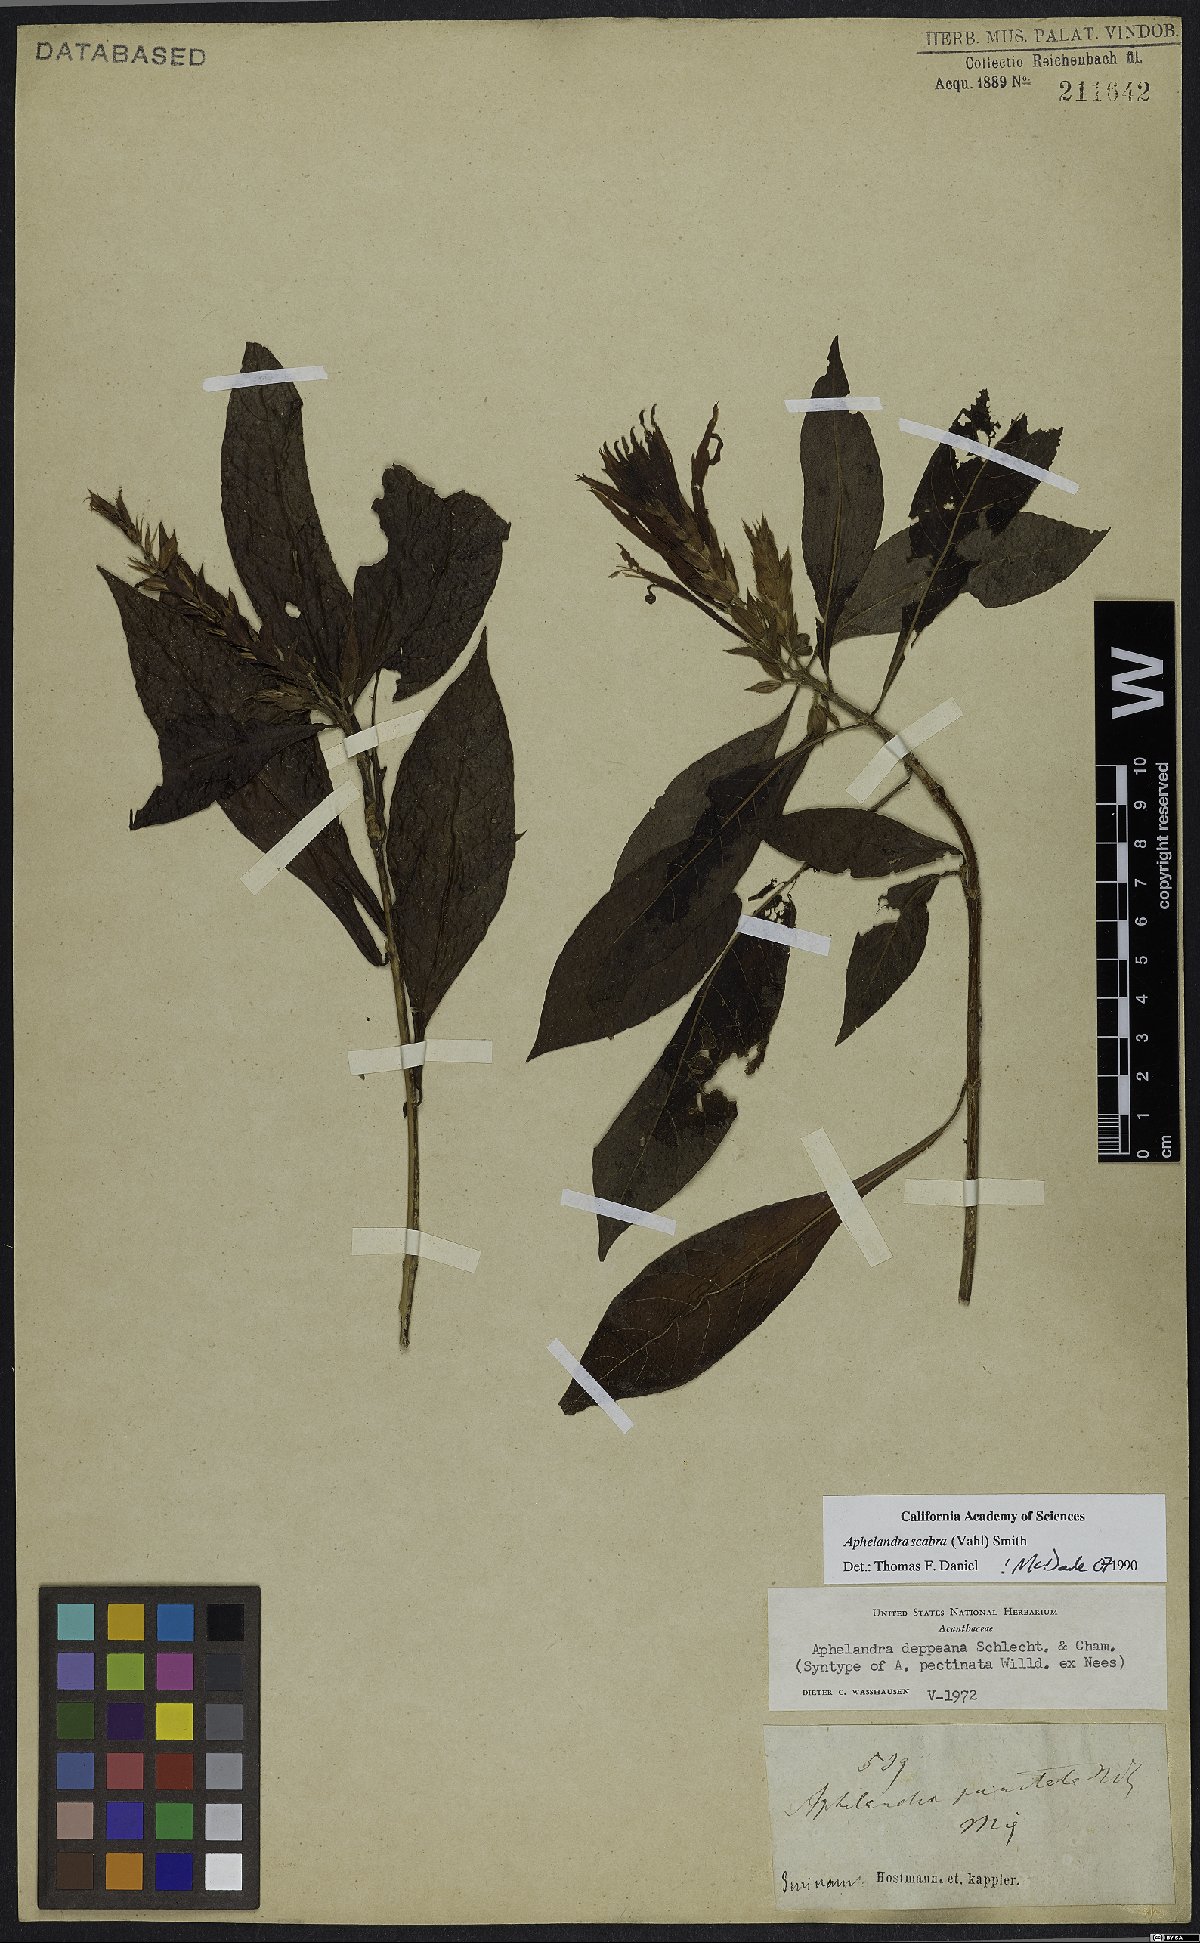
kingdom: Plantae
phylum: Tracheophyta
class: Magnoliopsida
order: Lamiales
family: Acanthaceae
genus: Aphelandra
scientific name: Aphelandra scabra
